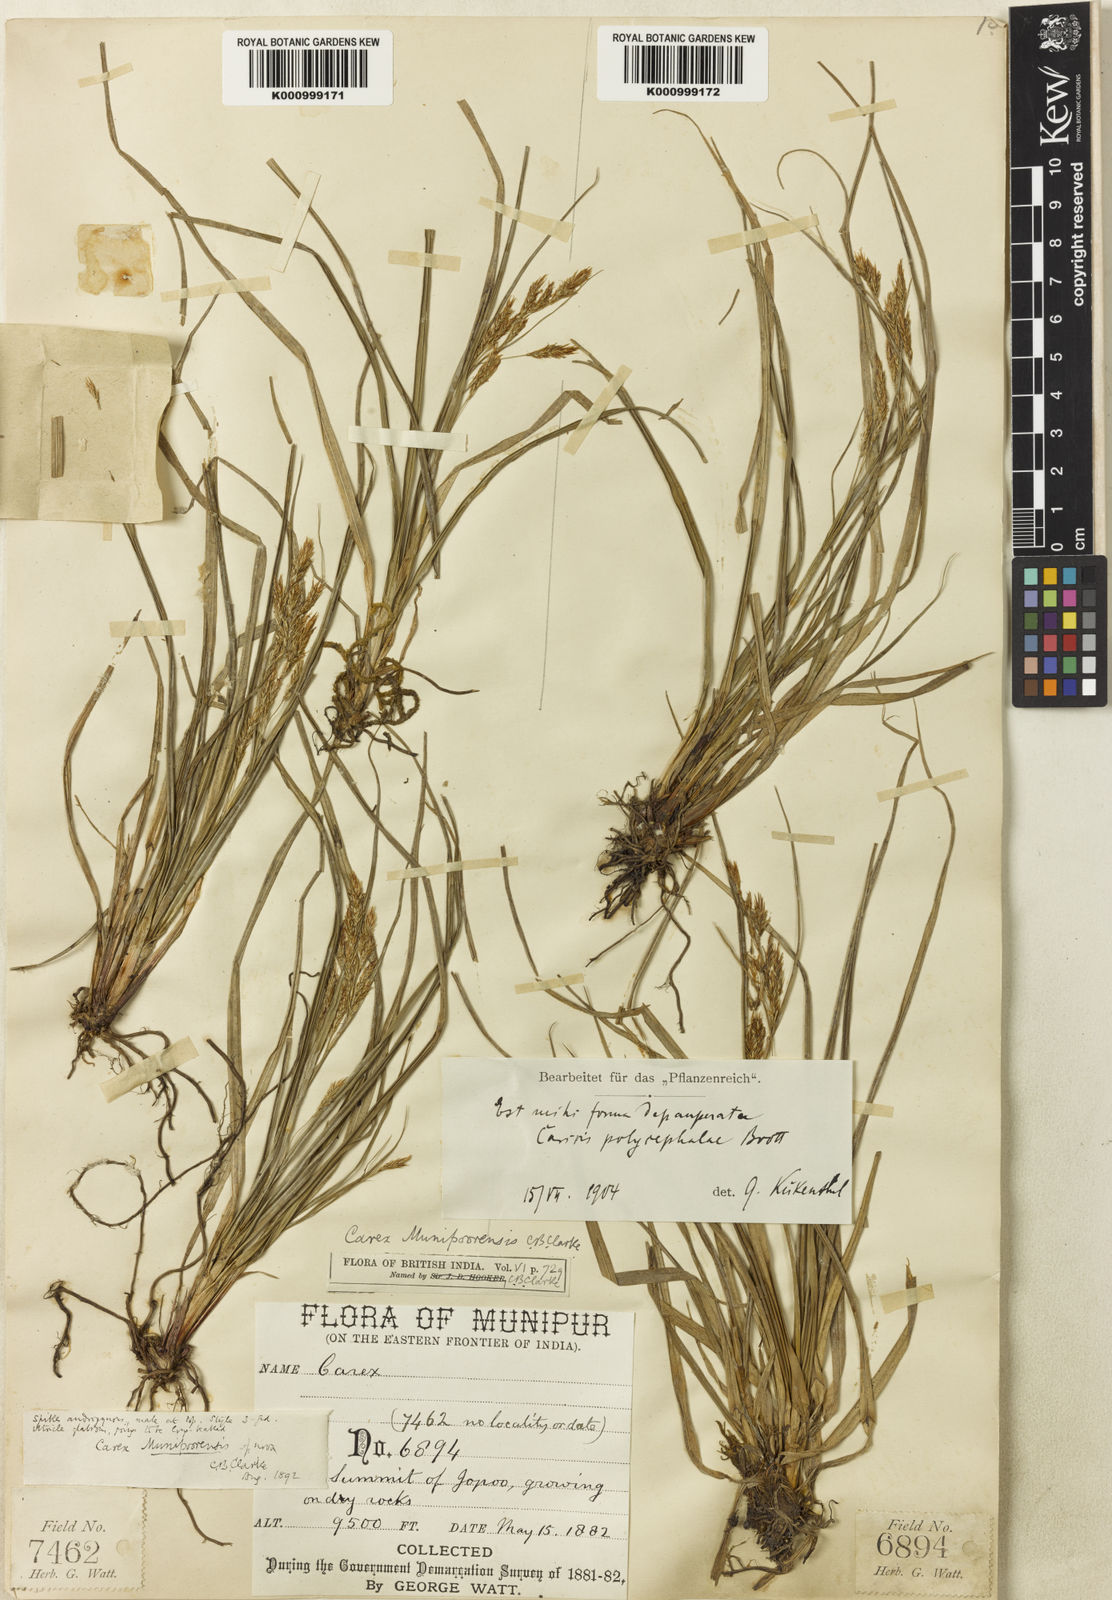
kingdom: Plantae
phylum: Tracheophyta
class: Liliopsida
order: Poales
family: Cyperaceae
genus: Carex
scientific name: Carex munipoorensis
